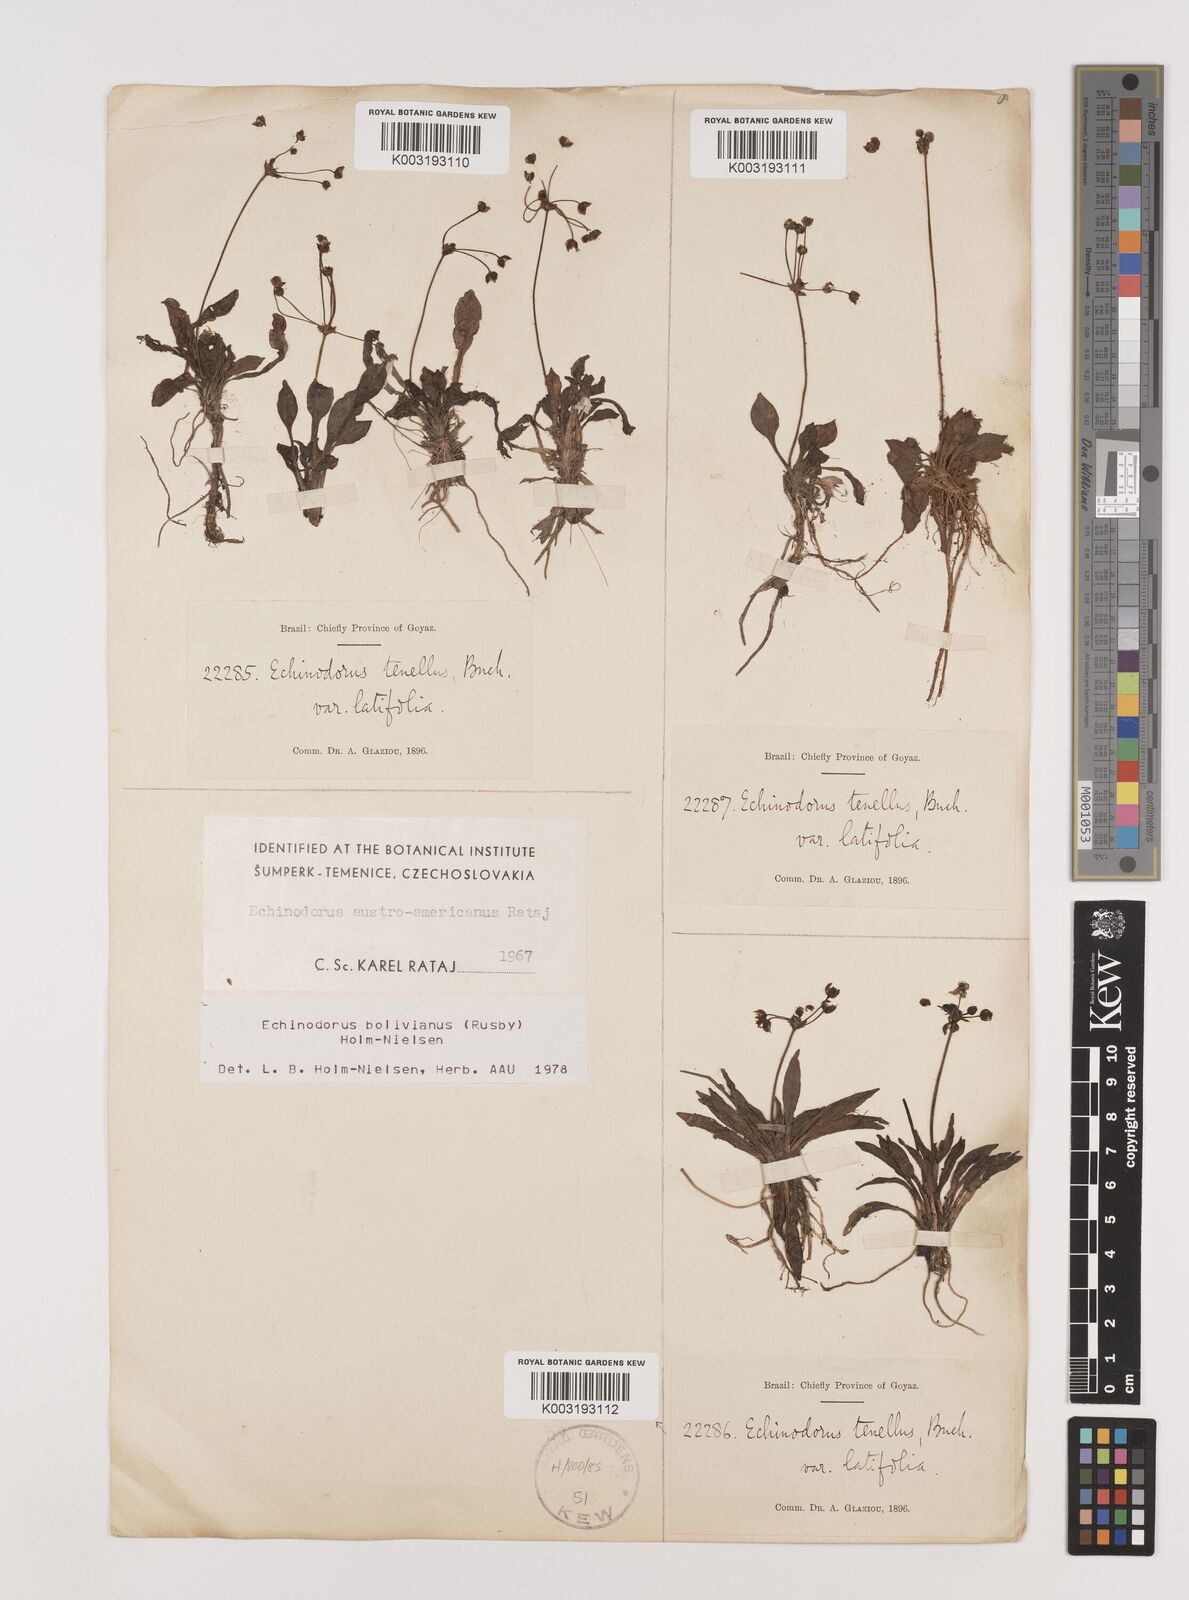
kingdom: Plantae
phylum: Tracheophyta
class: Liliopsida
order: Alismatales
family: Alismataceae
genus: Helanthium
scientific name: Helanthium bolivianum
